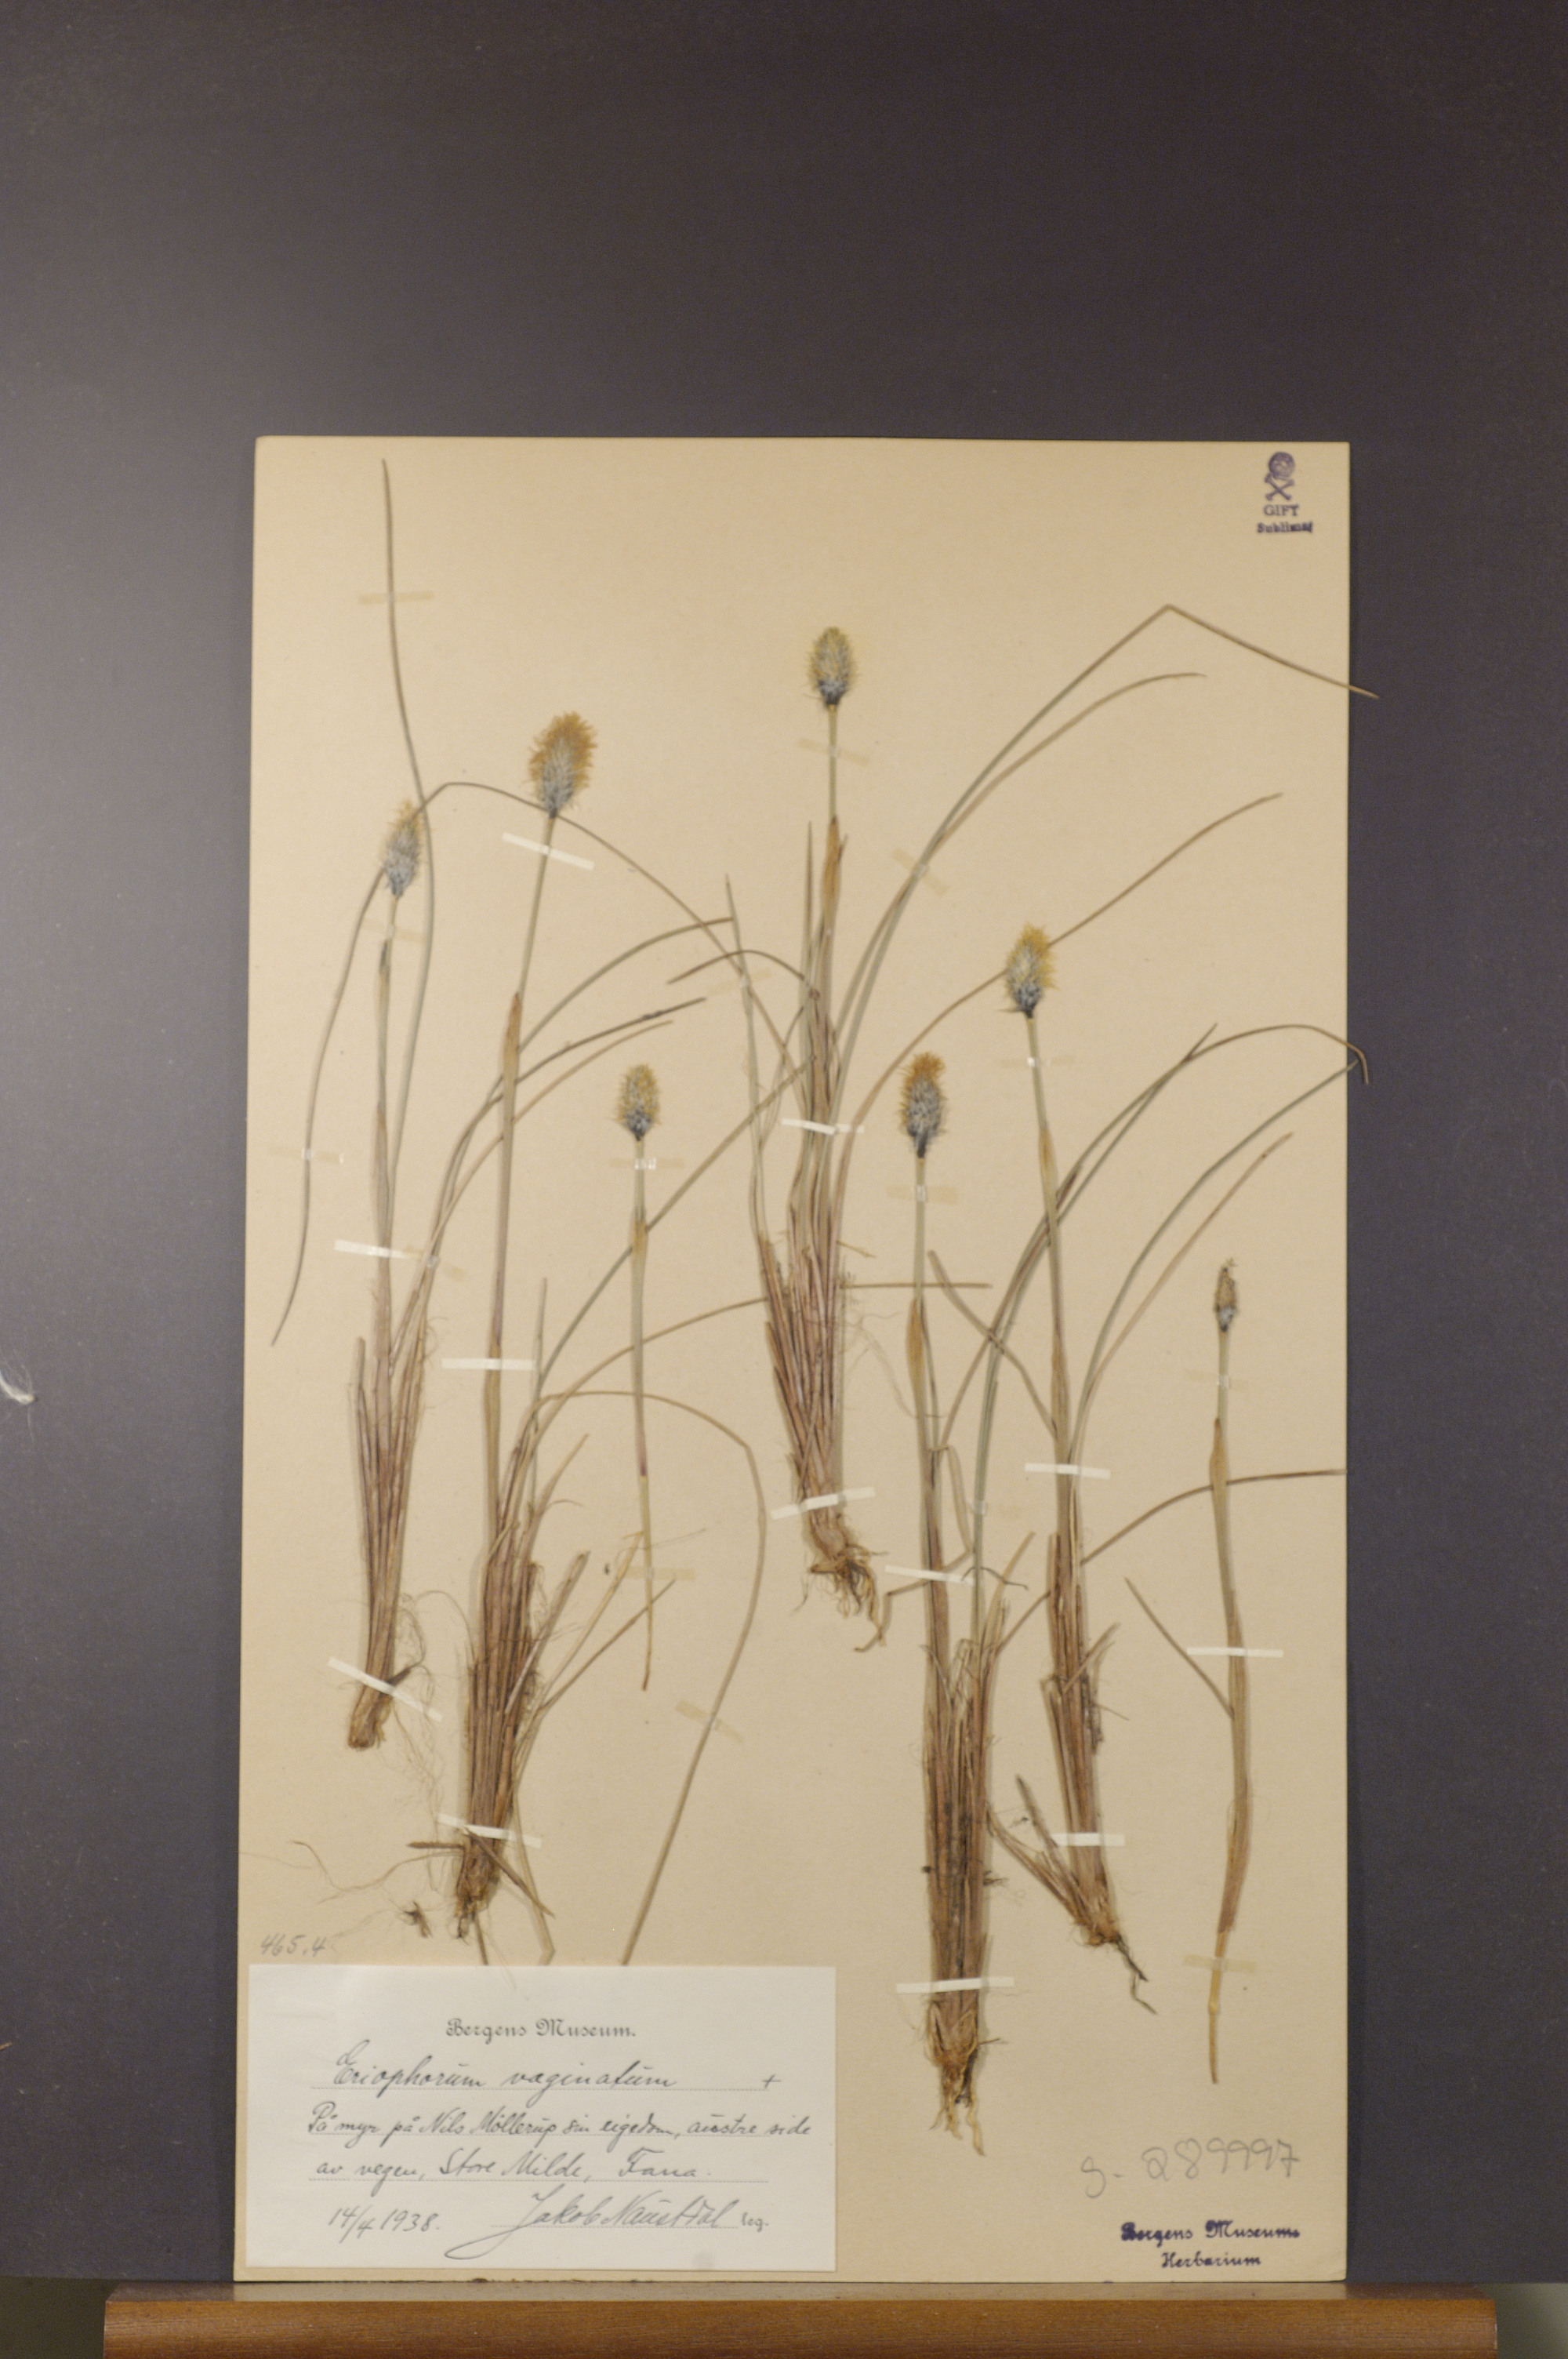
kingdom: Plantae
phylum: Tracheophyta
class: Liliopsida
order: Poales
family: Cyperaceae
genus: Eriophorum
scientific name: Eriophorum vaginatum
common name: Hare's-tail cottongrass
